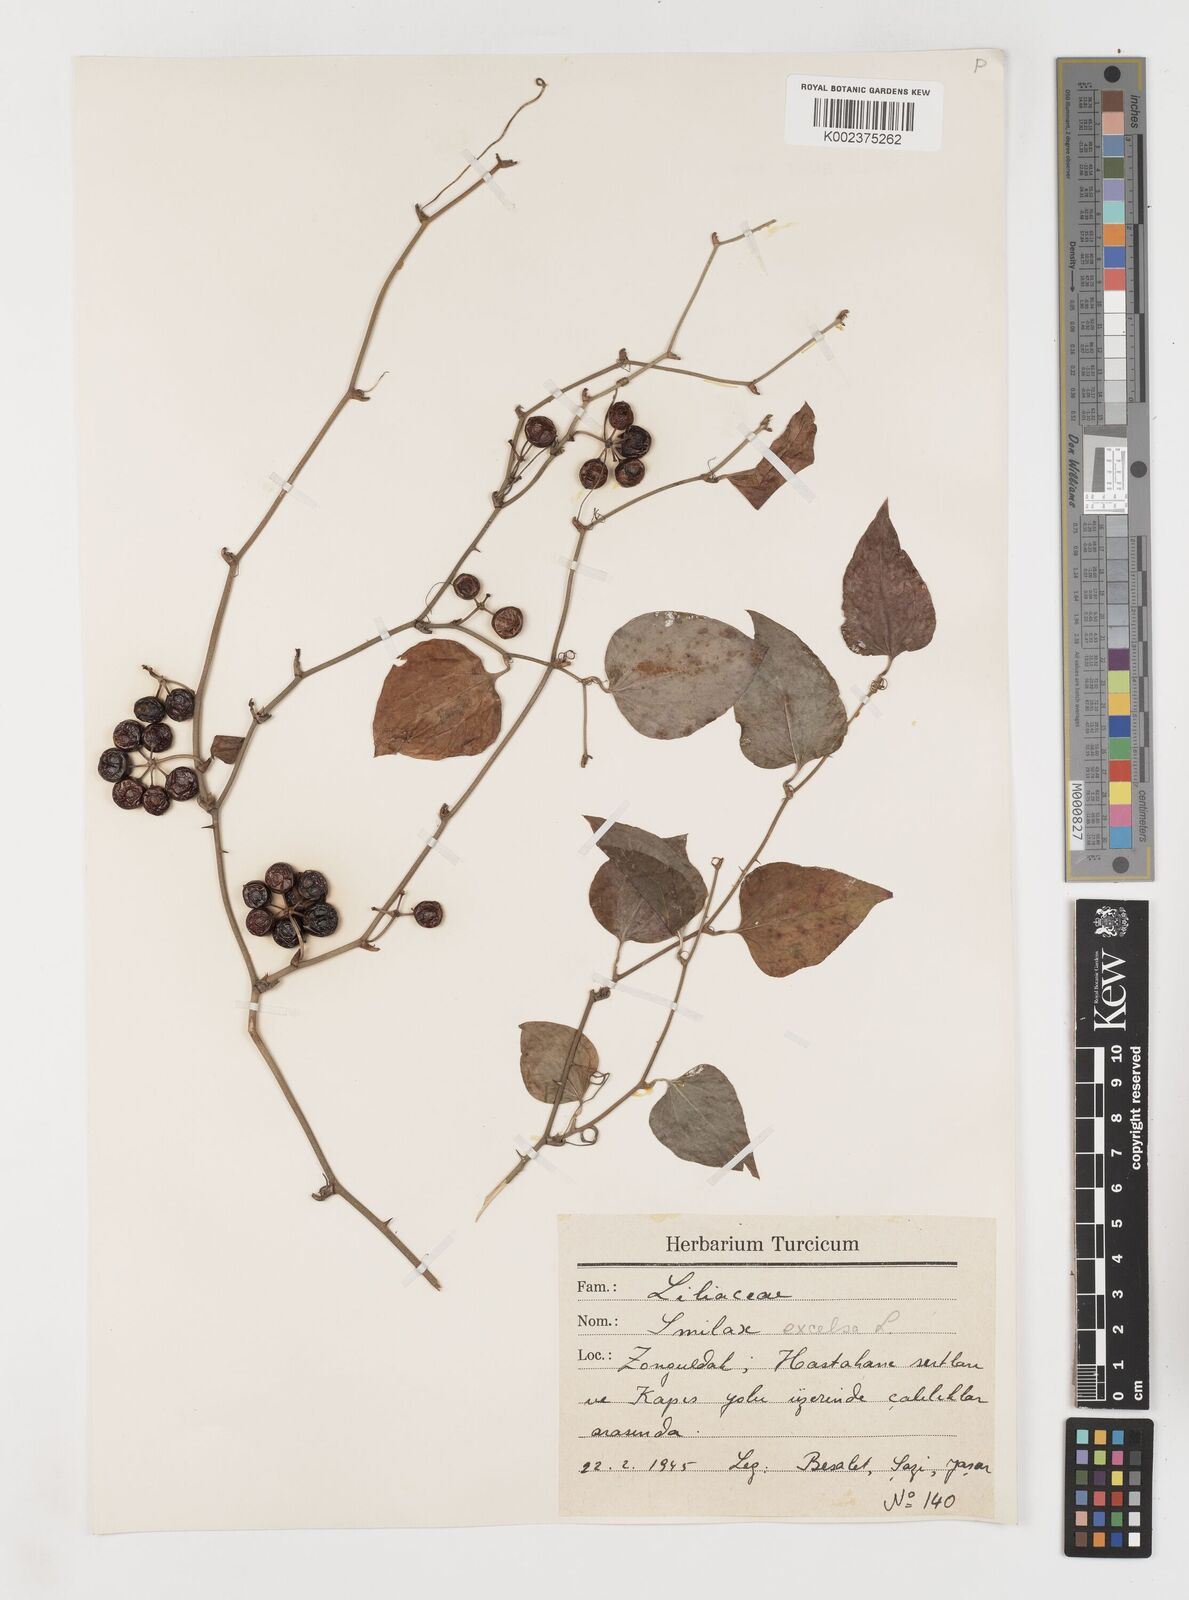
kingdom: Plantae
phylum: Tracheophyta
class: Liliopsida
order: Liliales
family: Smilacaceae
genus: Smilax
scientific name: Smilax excelsa
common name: Larger smilax
